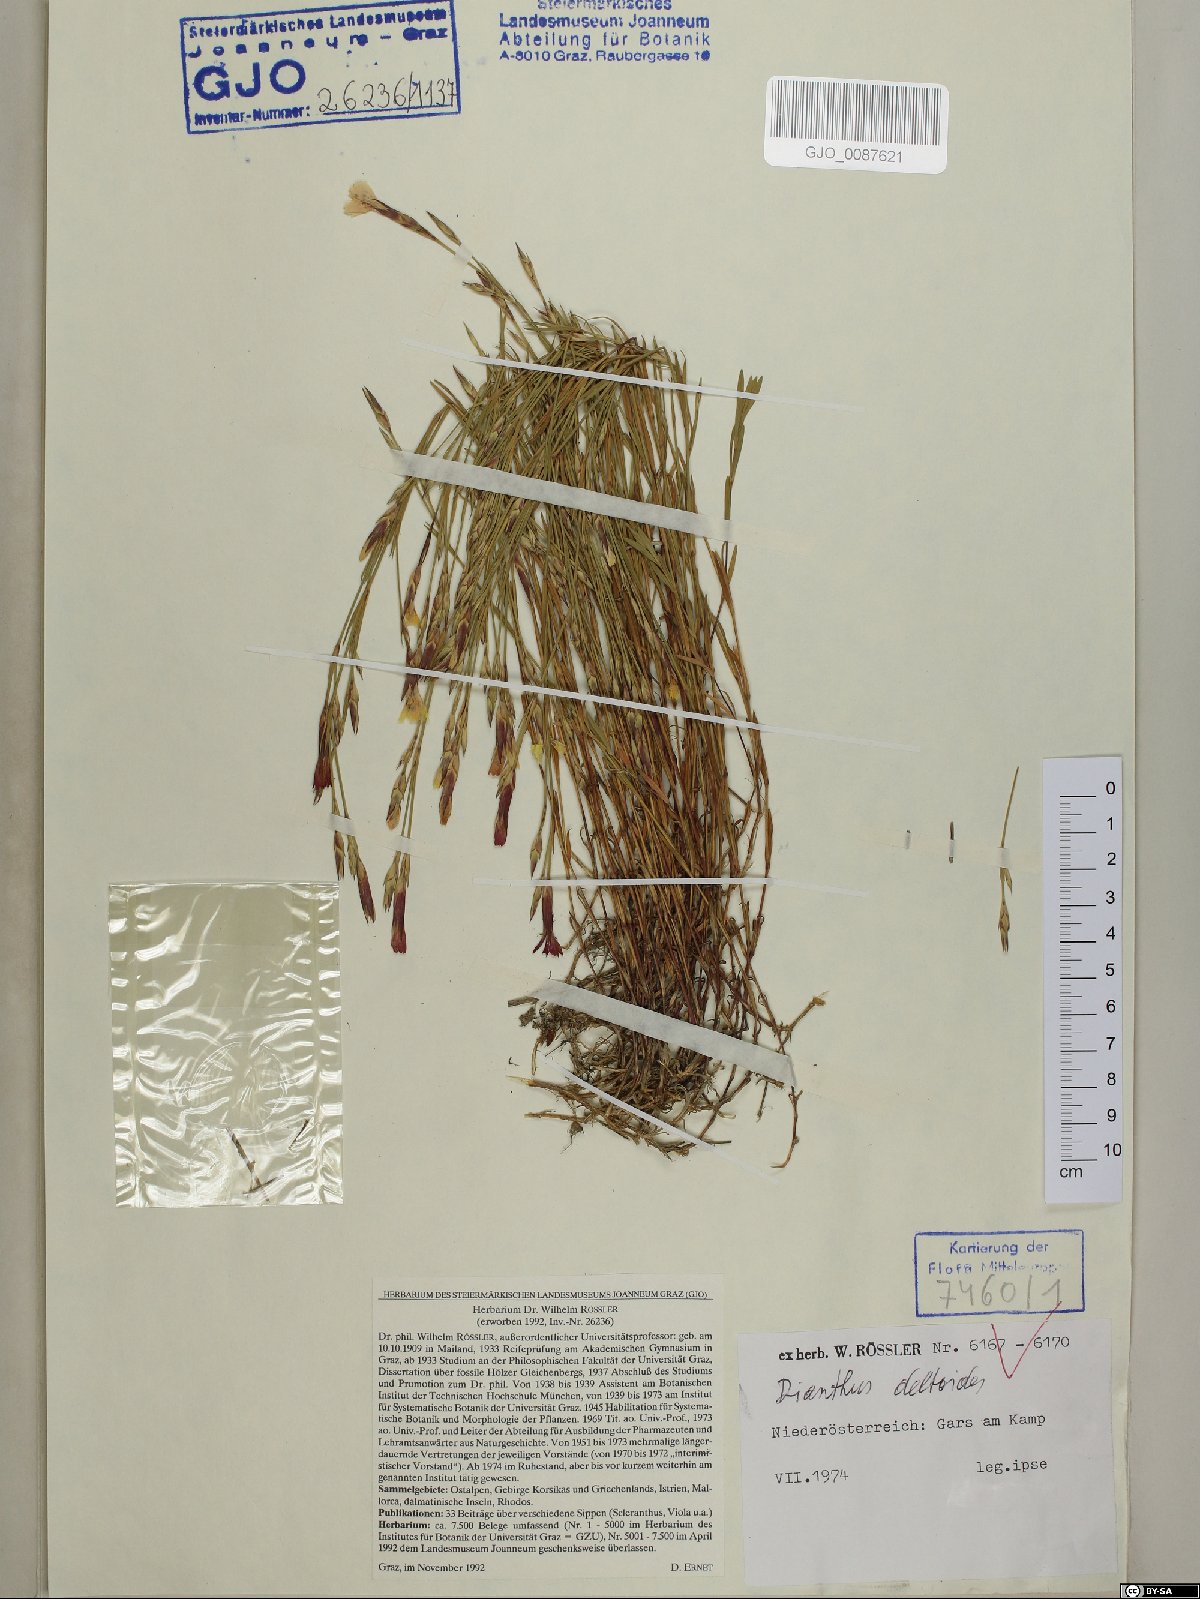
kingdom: Plantae
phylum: Tracheophyta
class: Magnoliopsida
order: Caryophyllales
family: Caryophyllaceae
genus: Dianthus
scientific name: Dianthus deltoides
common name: Maiden pink
